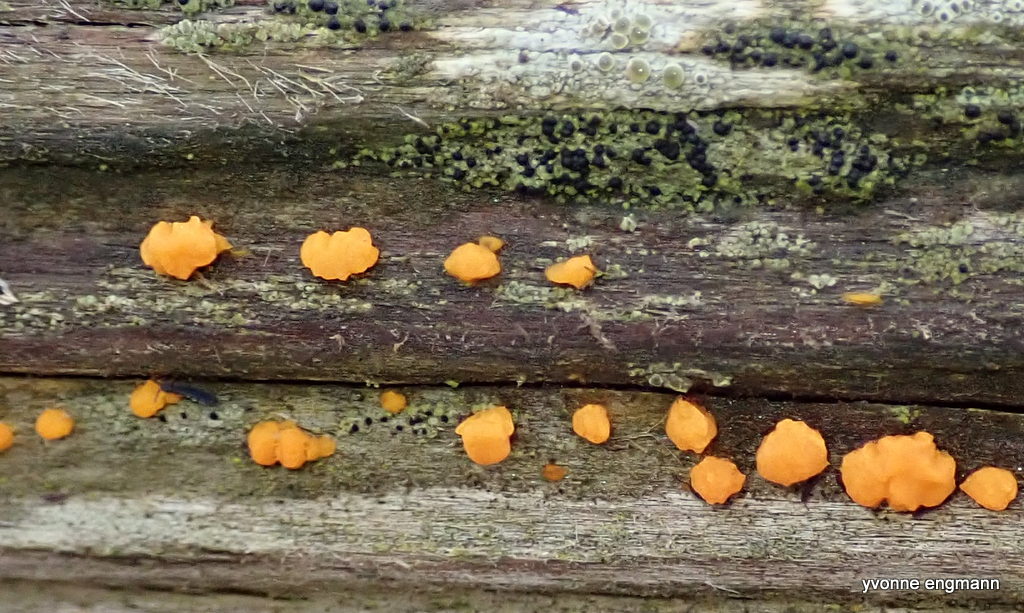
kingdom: Fungi
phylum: Basidiomycota
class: Dacrymycetes
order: Dacrymycetales
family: Dacrymycetaceae
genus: Dacrymyces
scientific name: Dacrymyces stillatus
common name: almindelig tåresvamp
